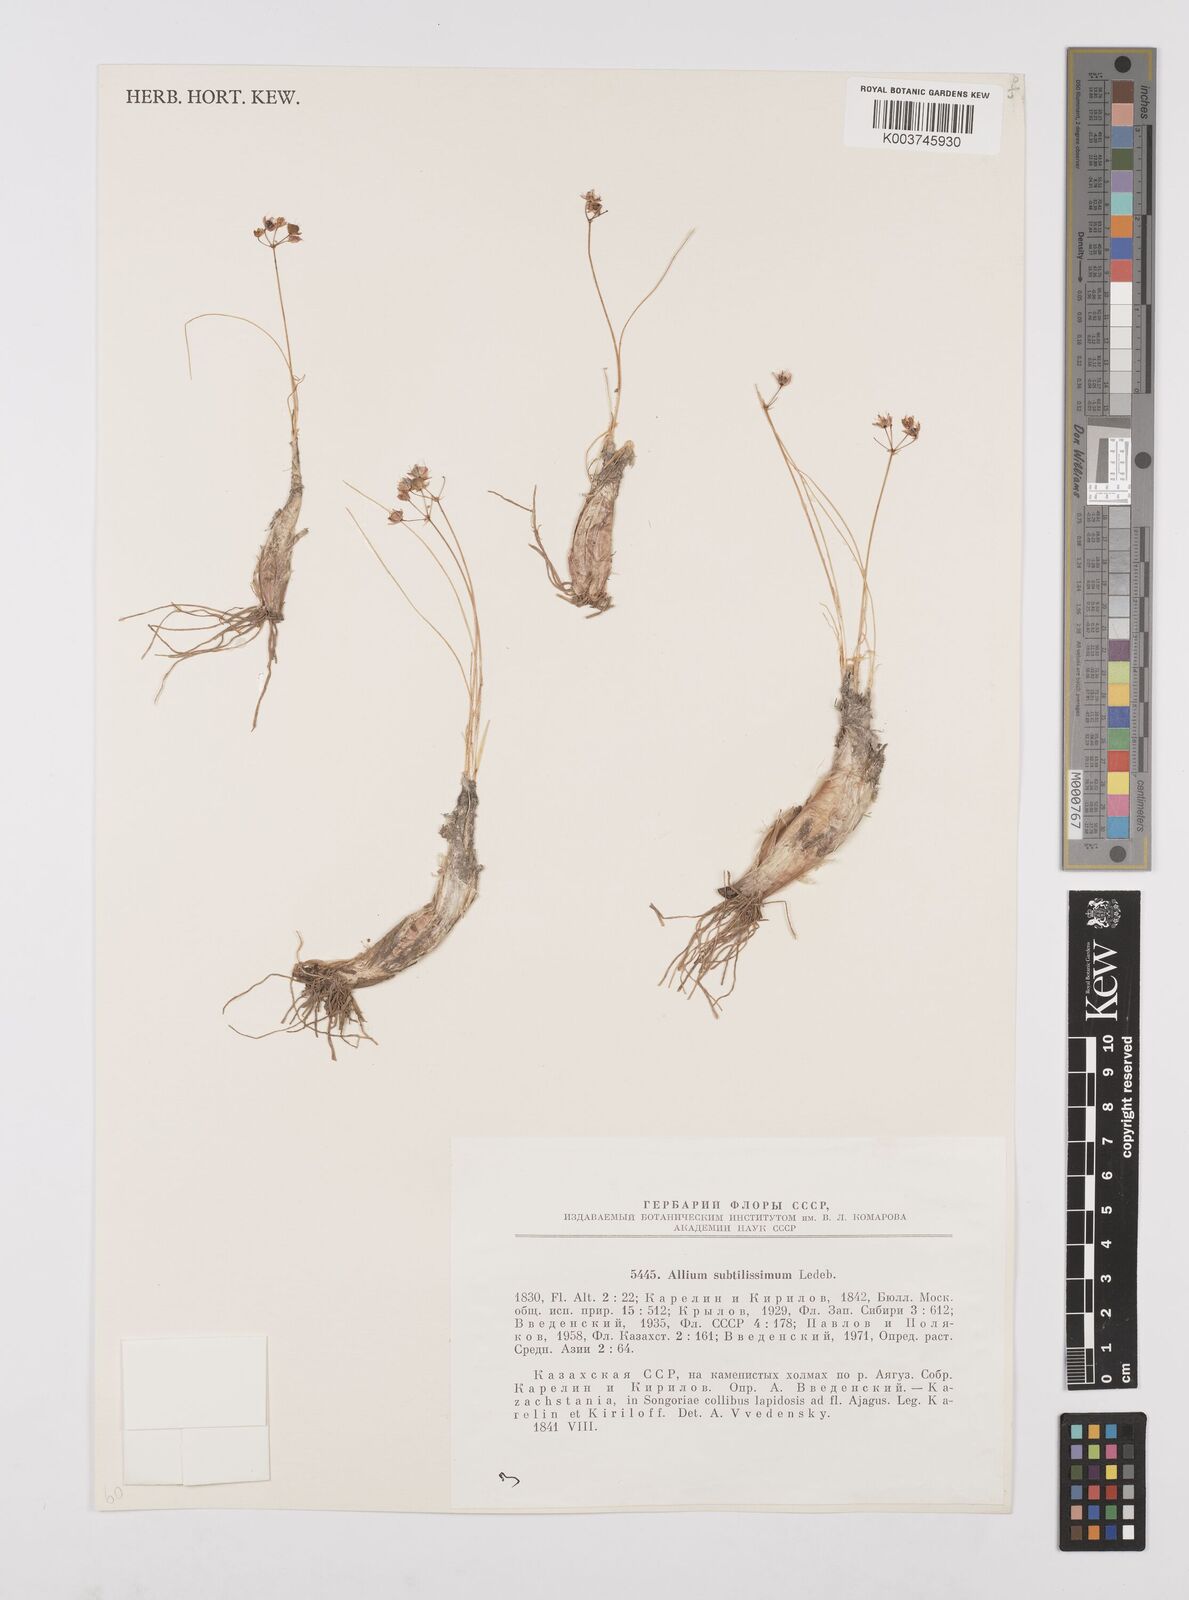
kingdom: Plantae
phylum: Tracheophyta
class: Liliopsida
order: Asparagales
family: Amaryllidaceae
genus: Allium
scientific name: Allium subtilissimum
